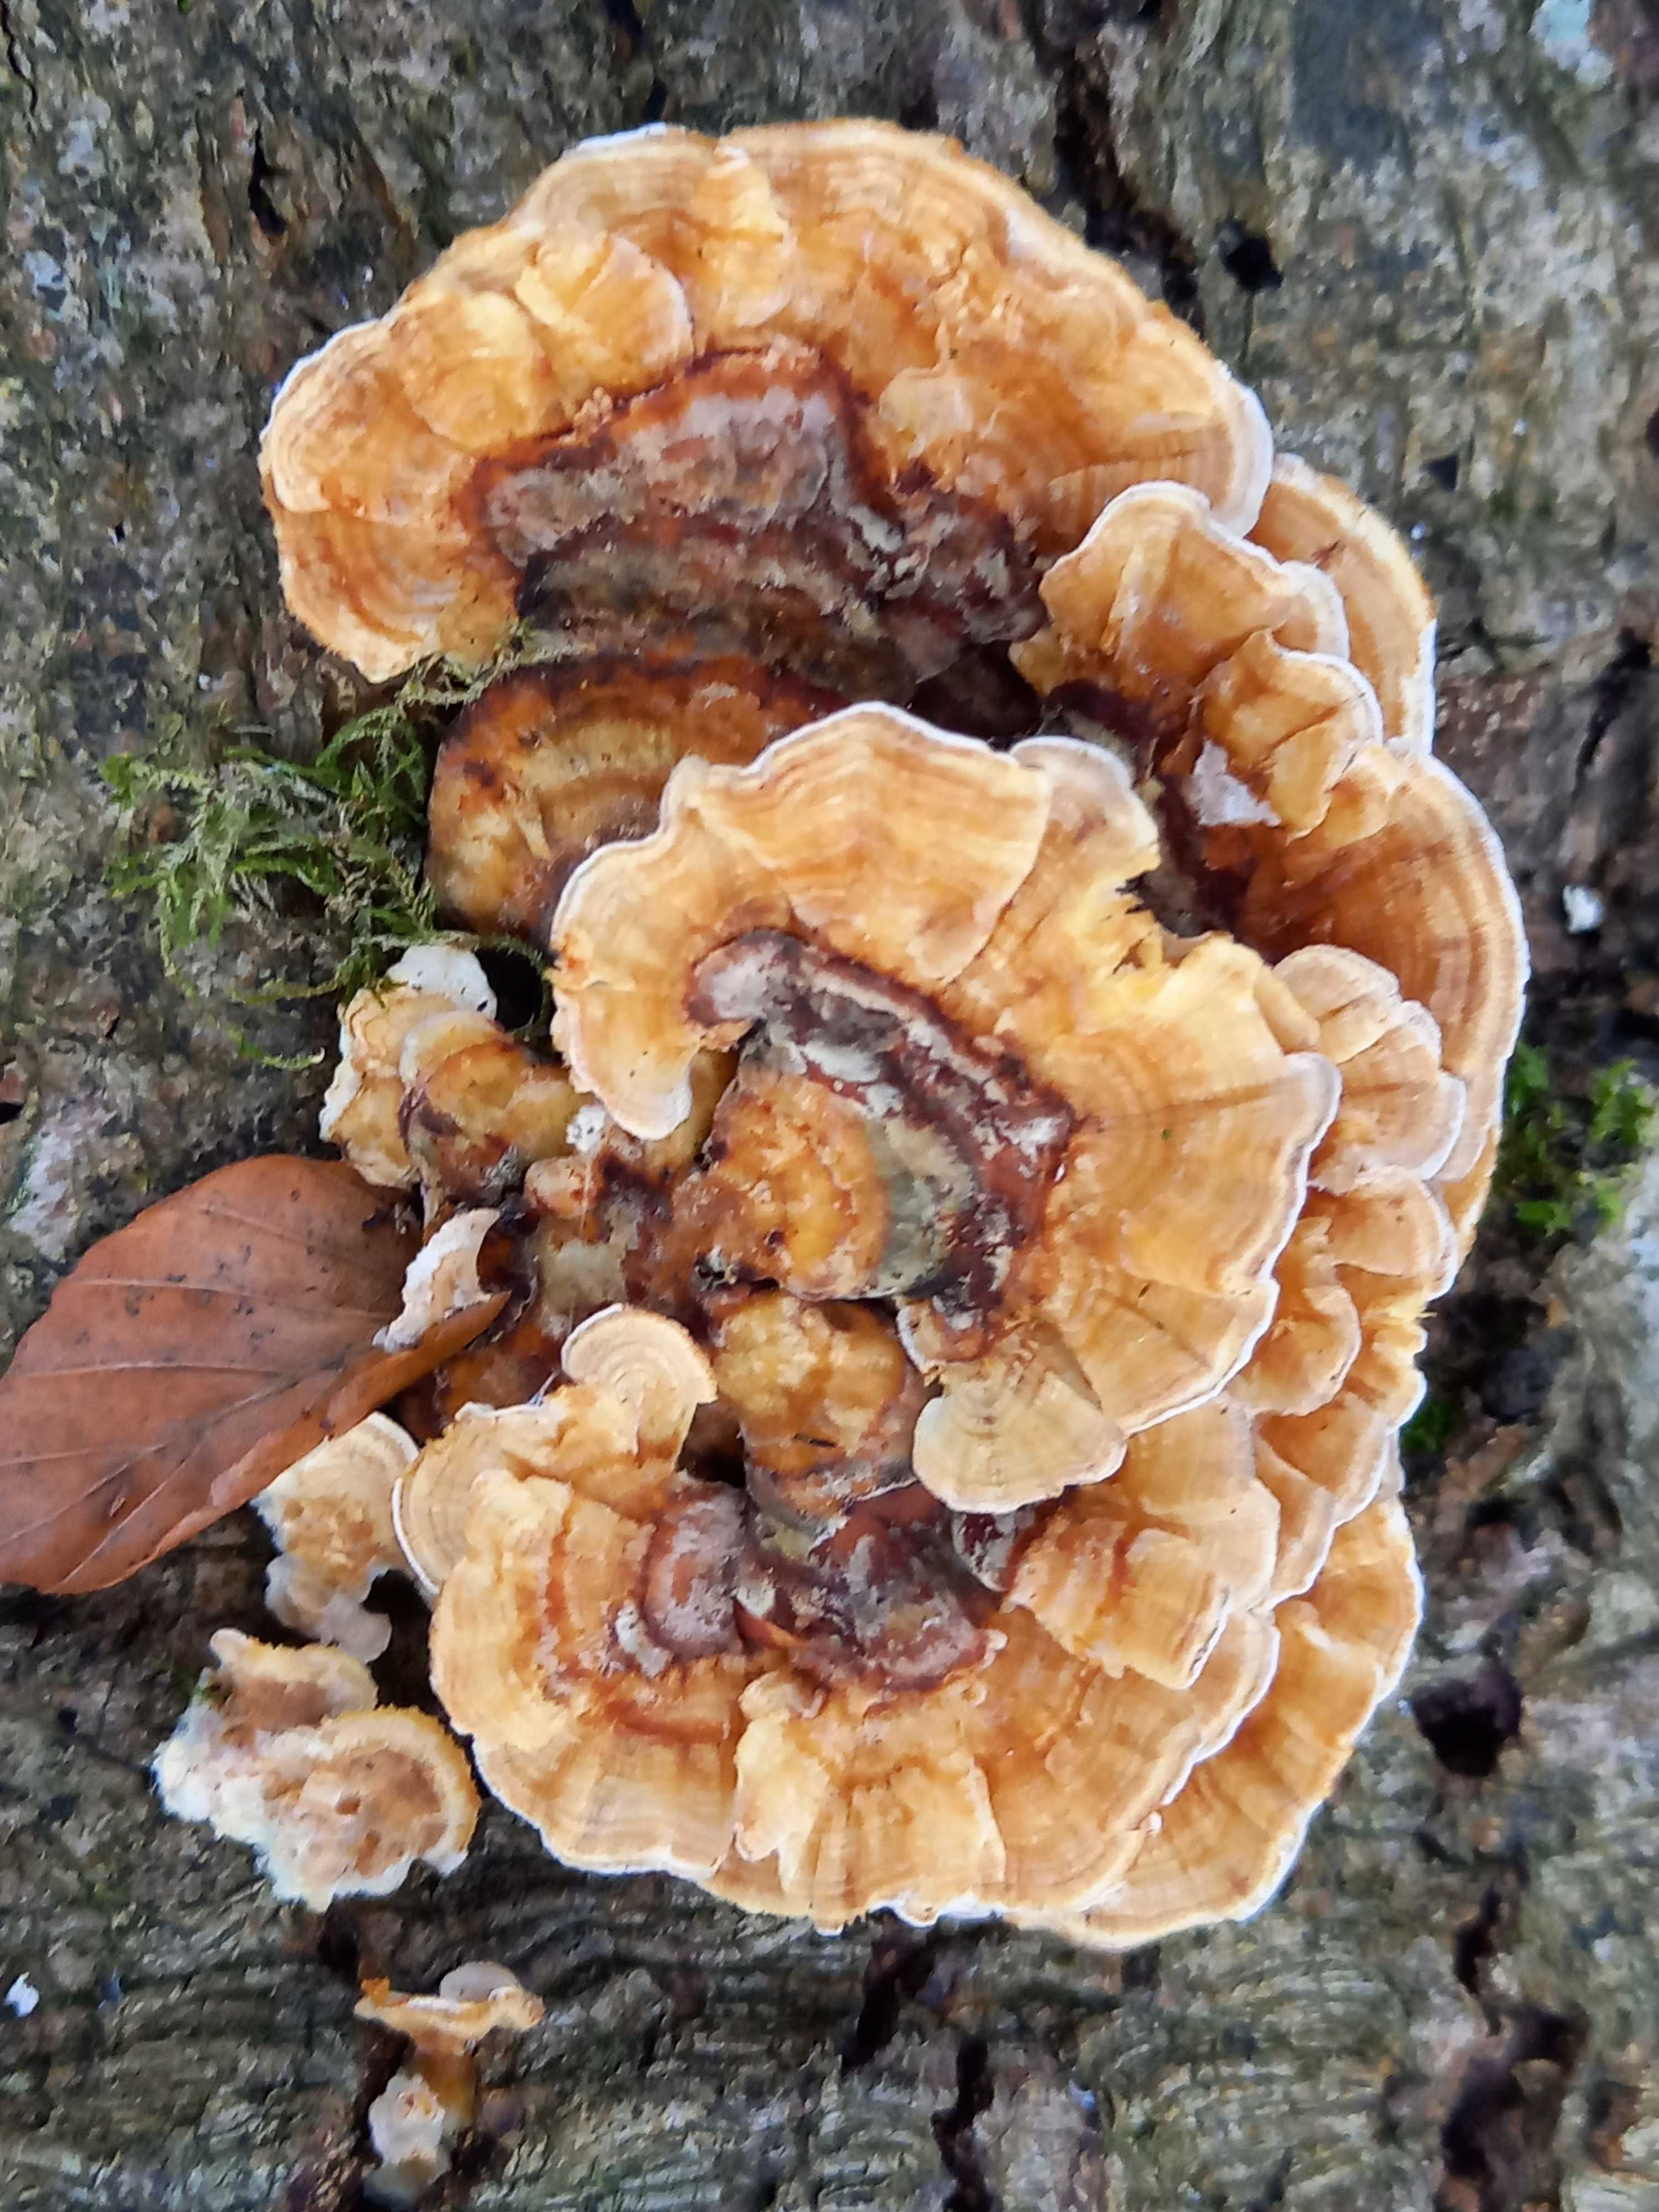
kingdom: Fungi
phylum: Basidiomycota
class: Agaricomycetes
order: Polyporales
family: Polyporaceae
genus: Trametes
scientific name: Trametes versicolor
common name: broget læderporesvamp
